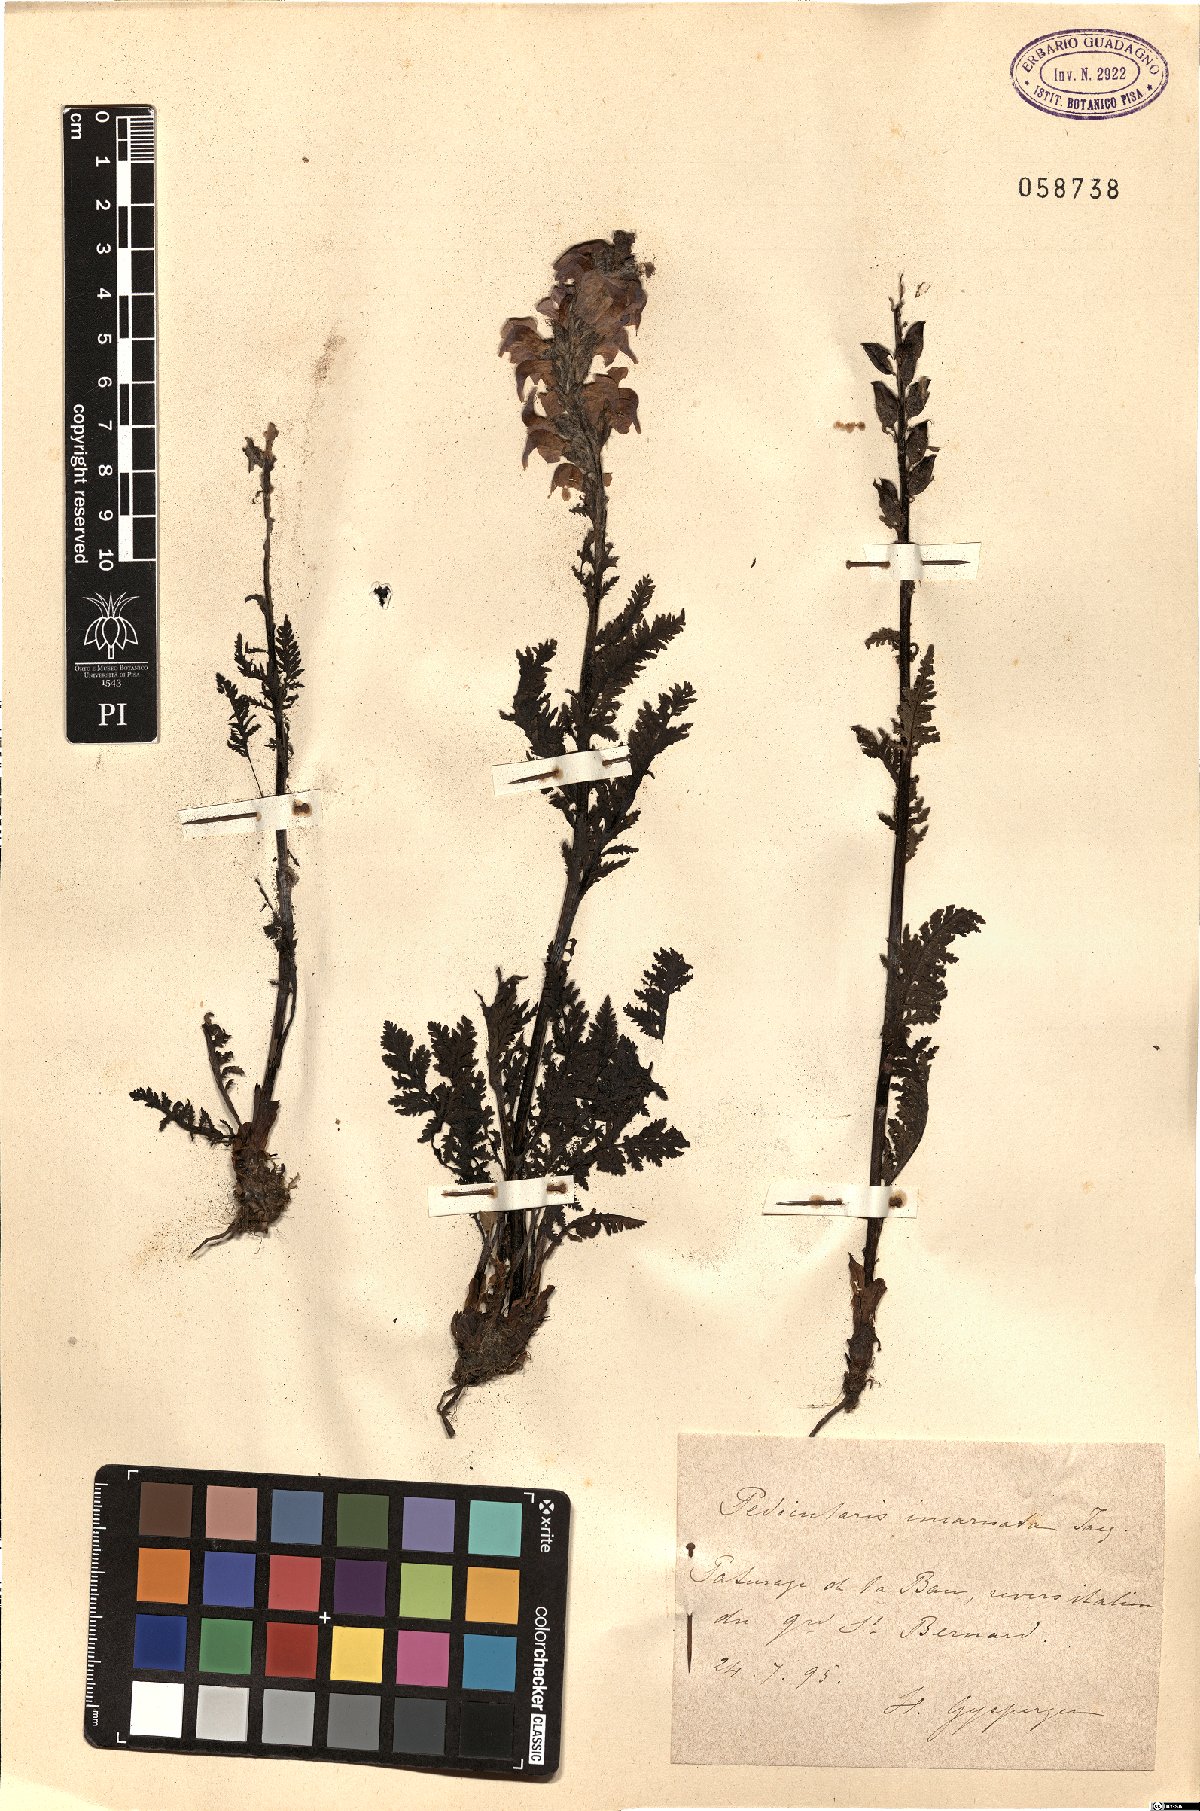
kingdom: Plantae
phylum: Tracheophyta
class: Magnoliopsida
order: Lamiales
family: Orobanchaceae
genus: Pedicularis
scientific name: Pedicularis rostratospicata
